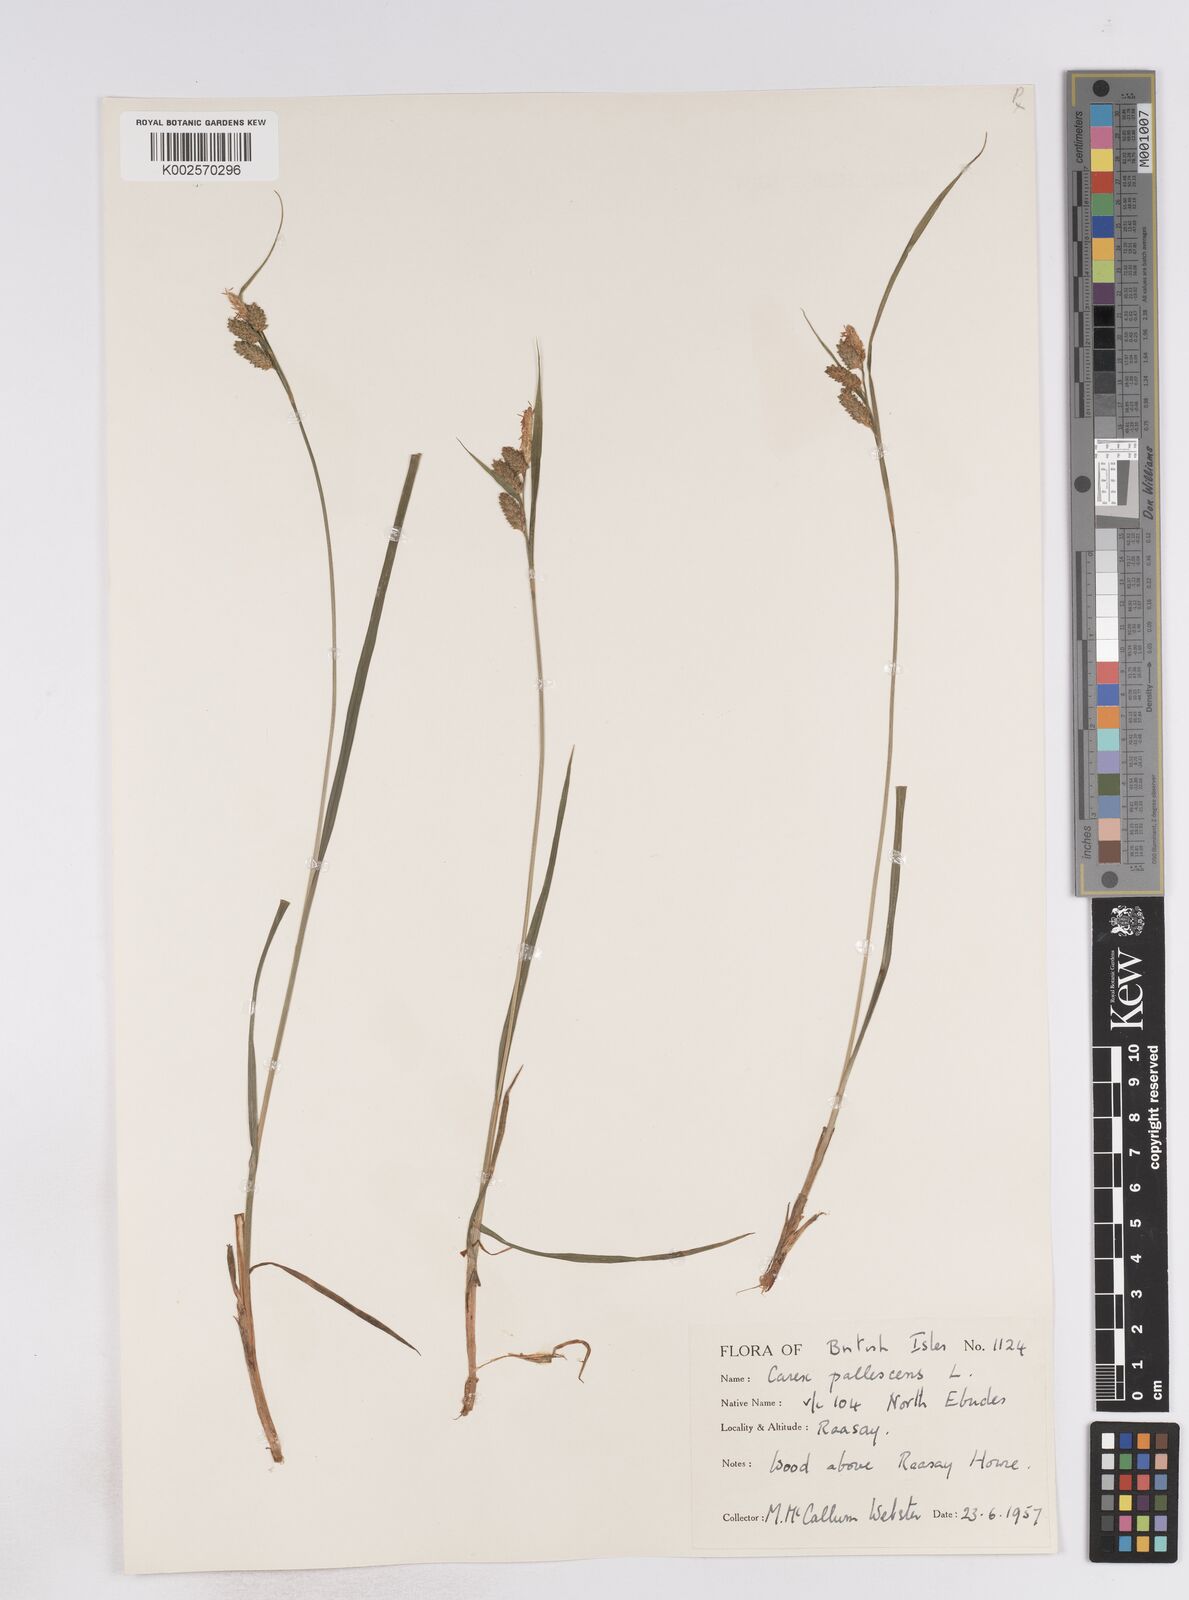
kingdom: Plantae
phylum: Tracheophyta
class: Liliopsida
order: Poales
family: Cyperaceae
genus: Carex
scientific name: Carex pallescens
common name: Pale sedge
